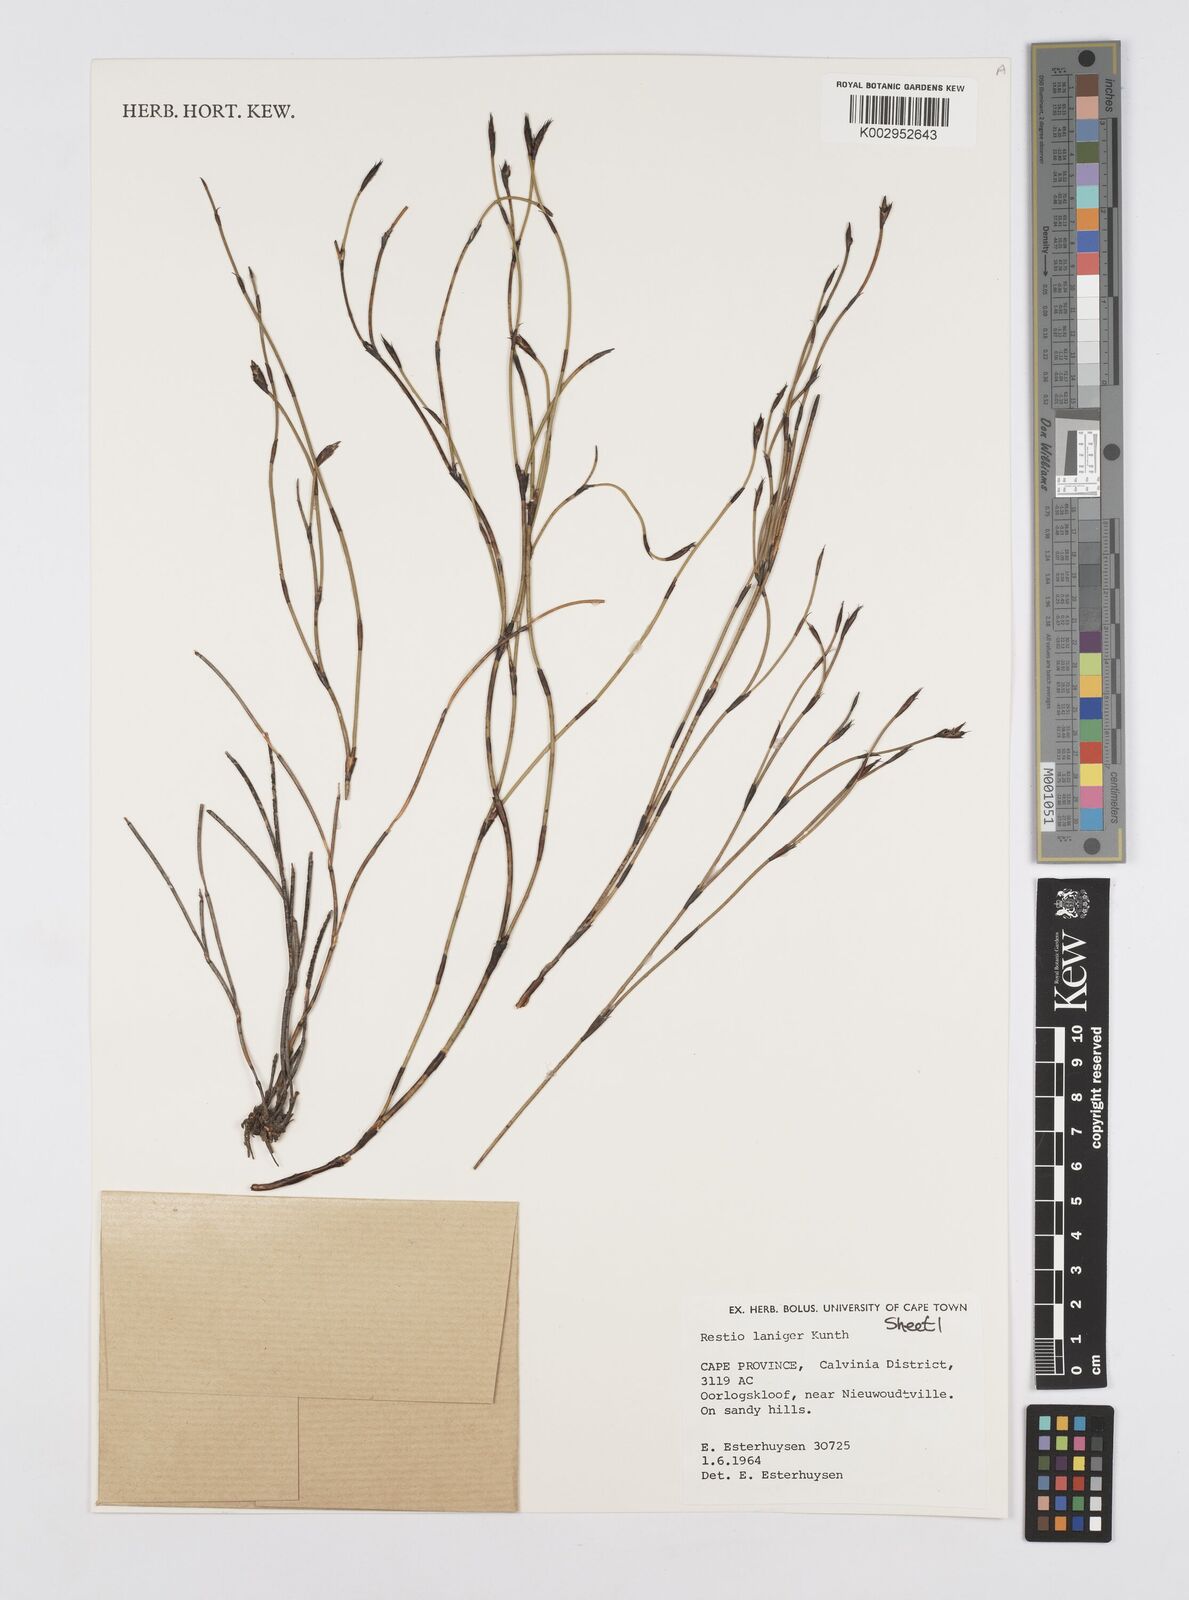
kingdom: Plantae
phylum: Tracheophyta
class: Liliopsida
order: Poales
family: Restionaceae
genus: Restio
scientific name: Restio laniger
